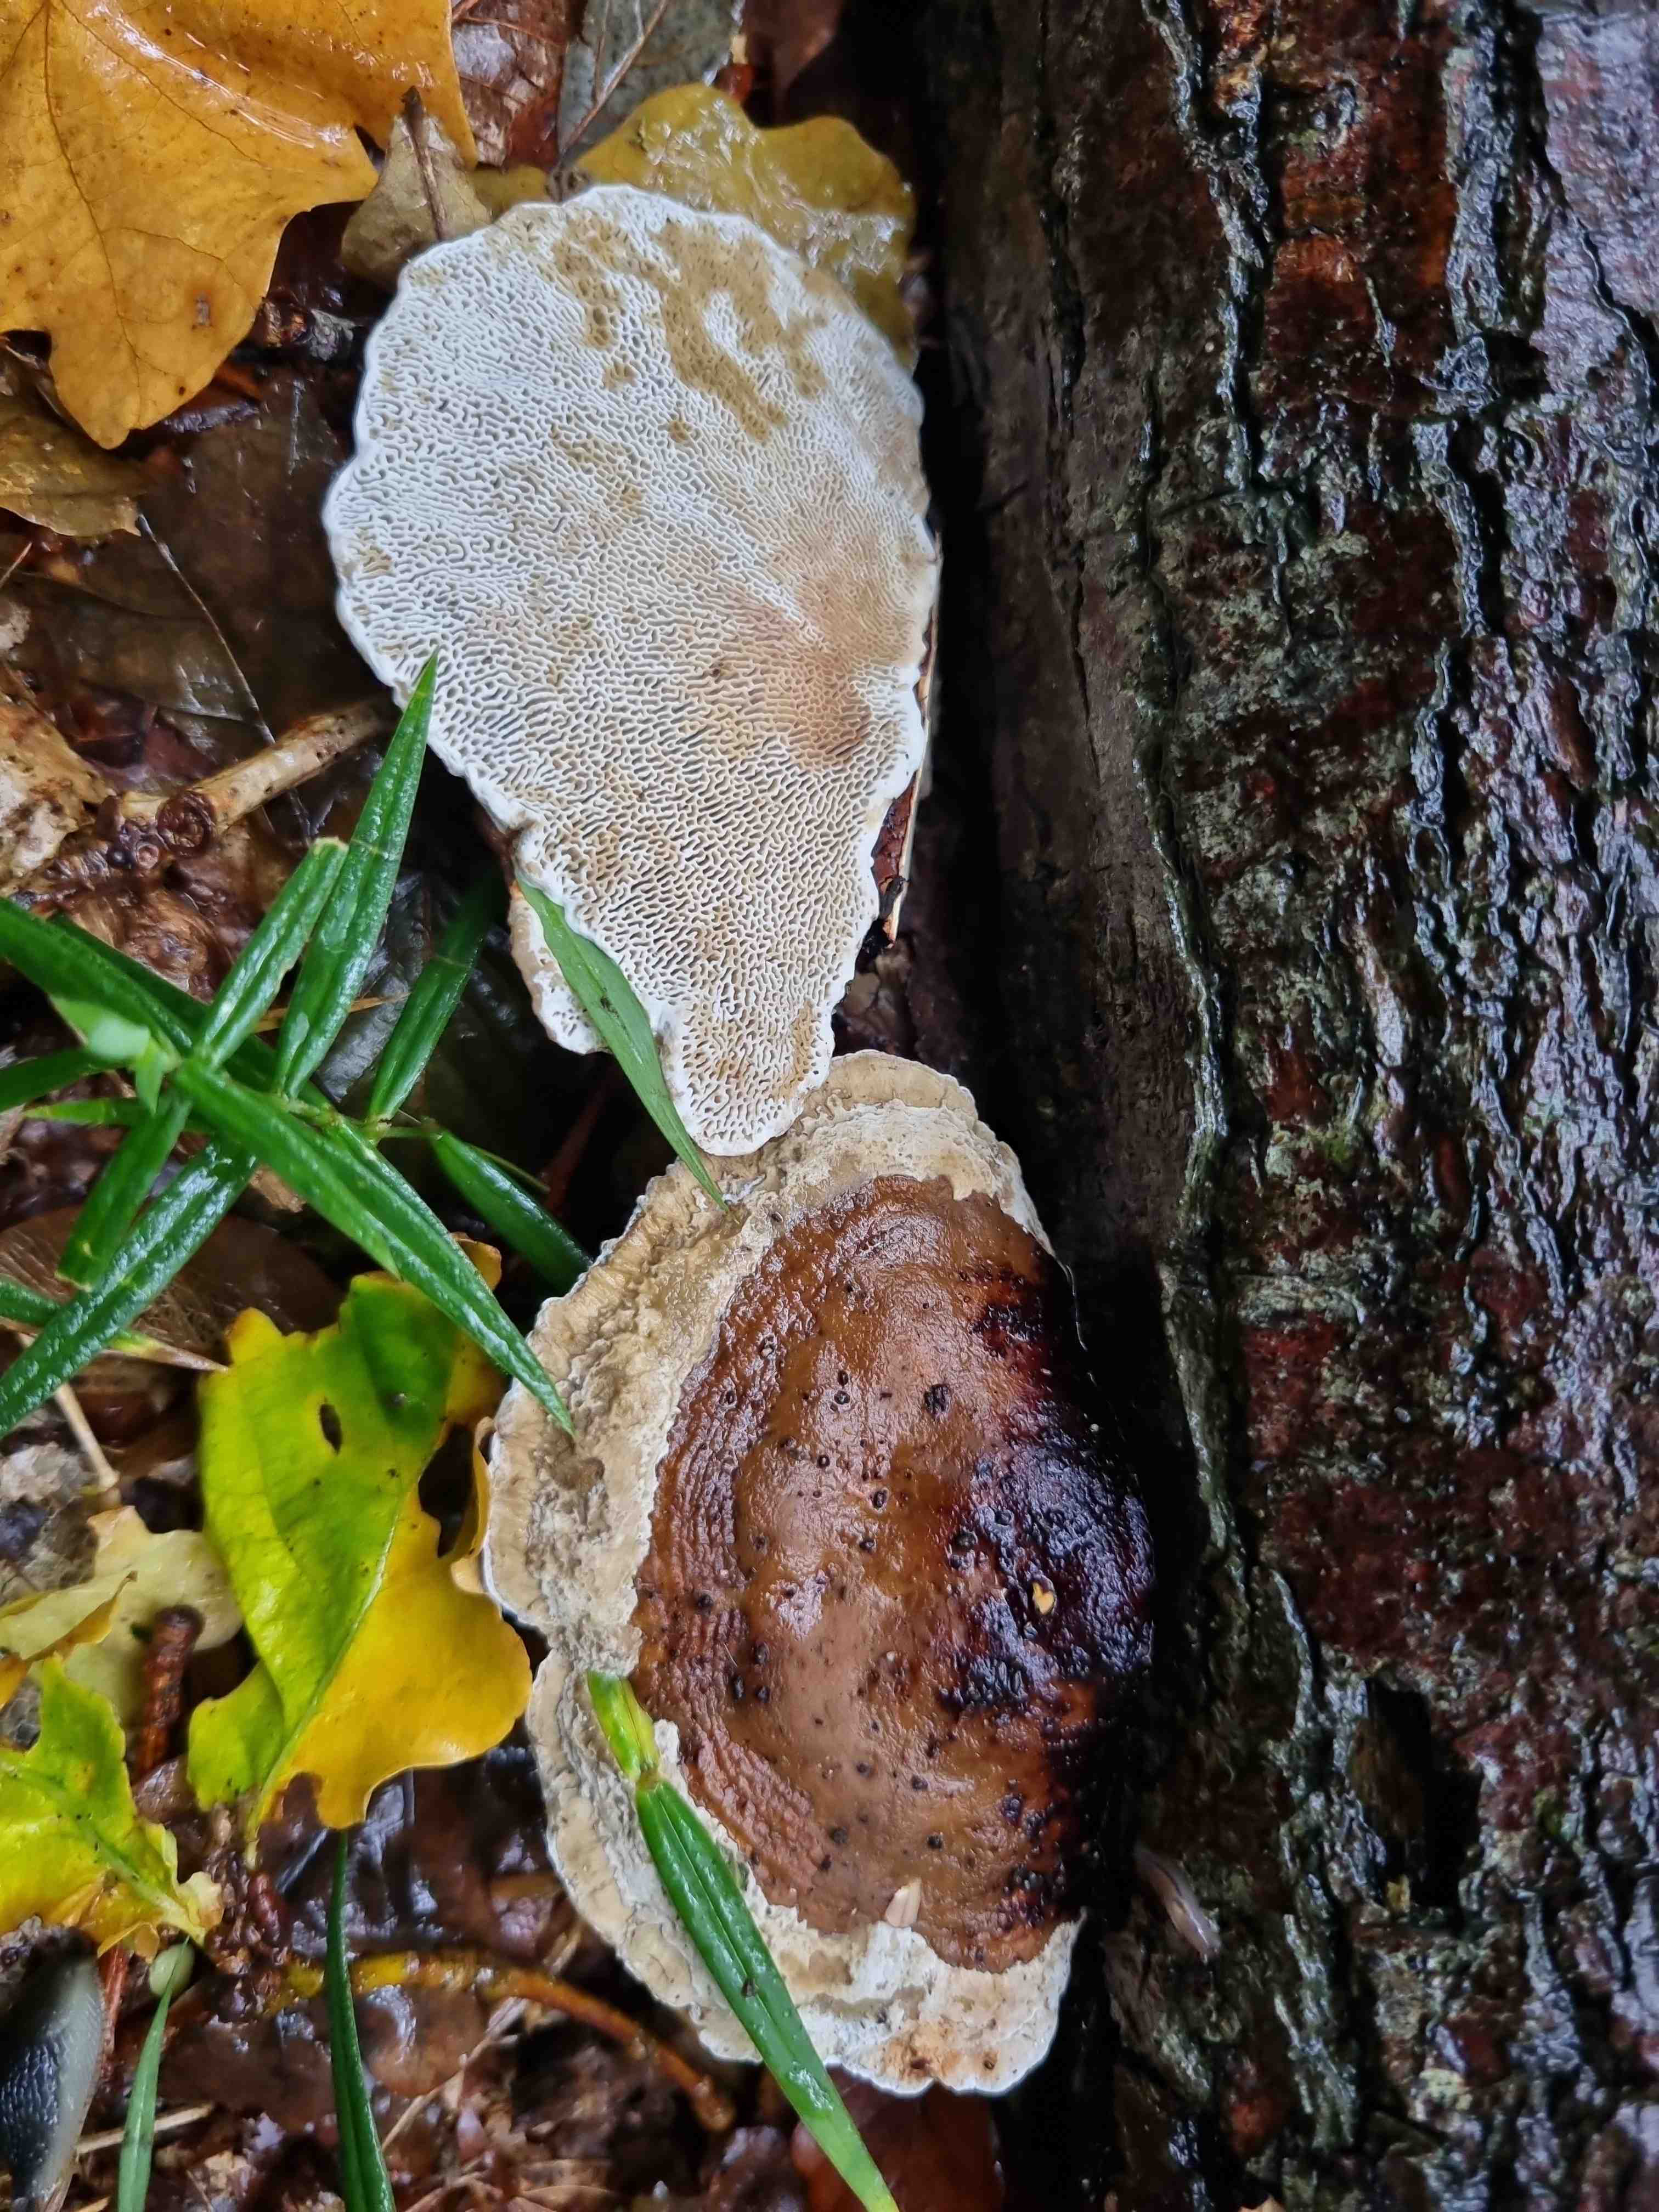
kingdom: Fungi
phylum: Basidiomycota
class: Agaricomycetes
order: Polyporales
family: Polyporaceae
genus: Daedaleopsis
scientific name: Daedaleopsis confragosa
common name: rødmende læderporesvamp
